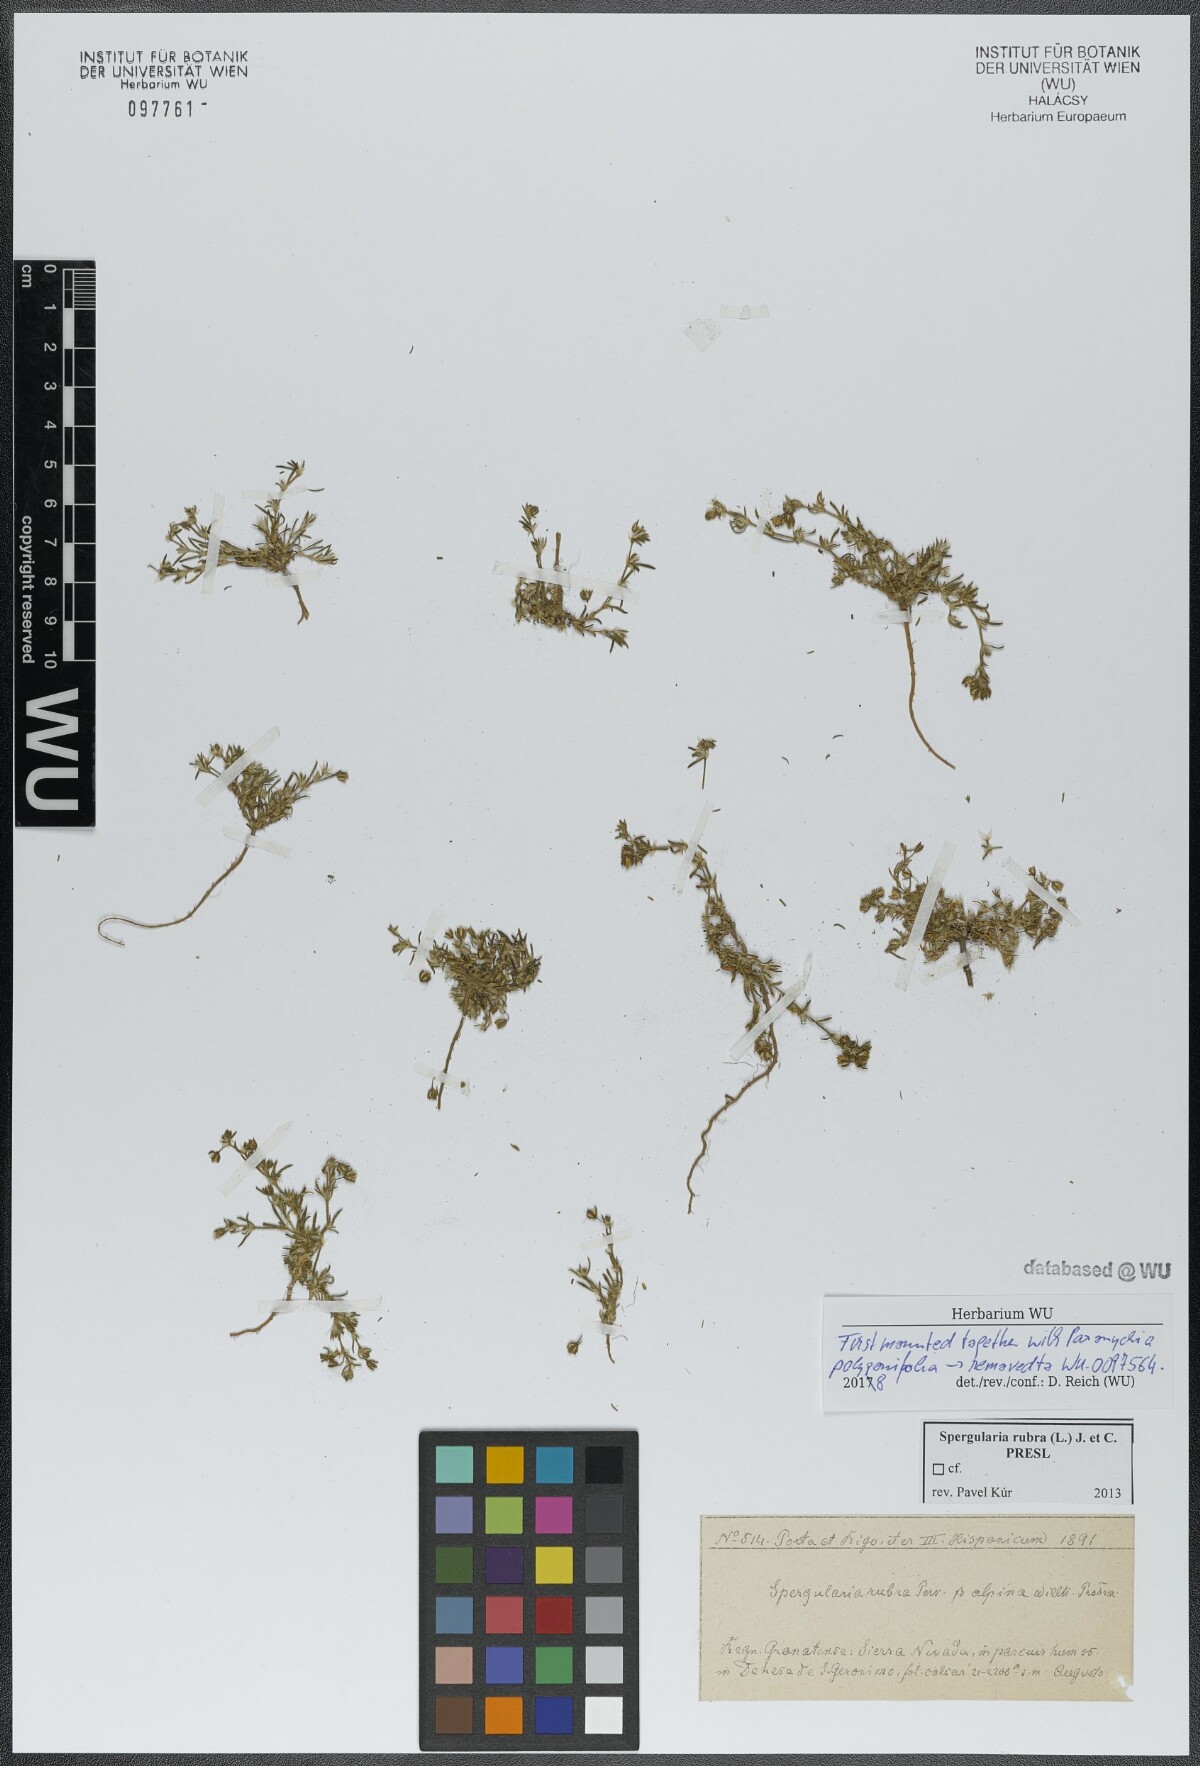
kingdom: Plantae
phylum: Tracheophyta
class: Magnoliopsida
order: Caryophyllales
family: Caryophyllaceae
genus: Spergularia
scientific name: Spergularia rubra
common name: Red sand-spurrey
